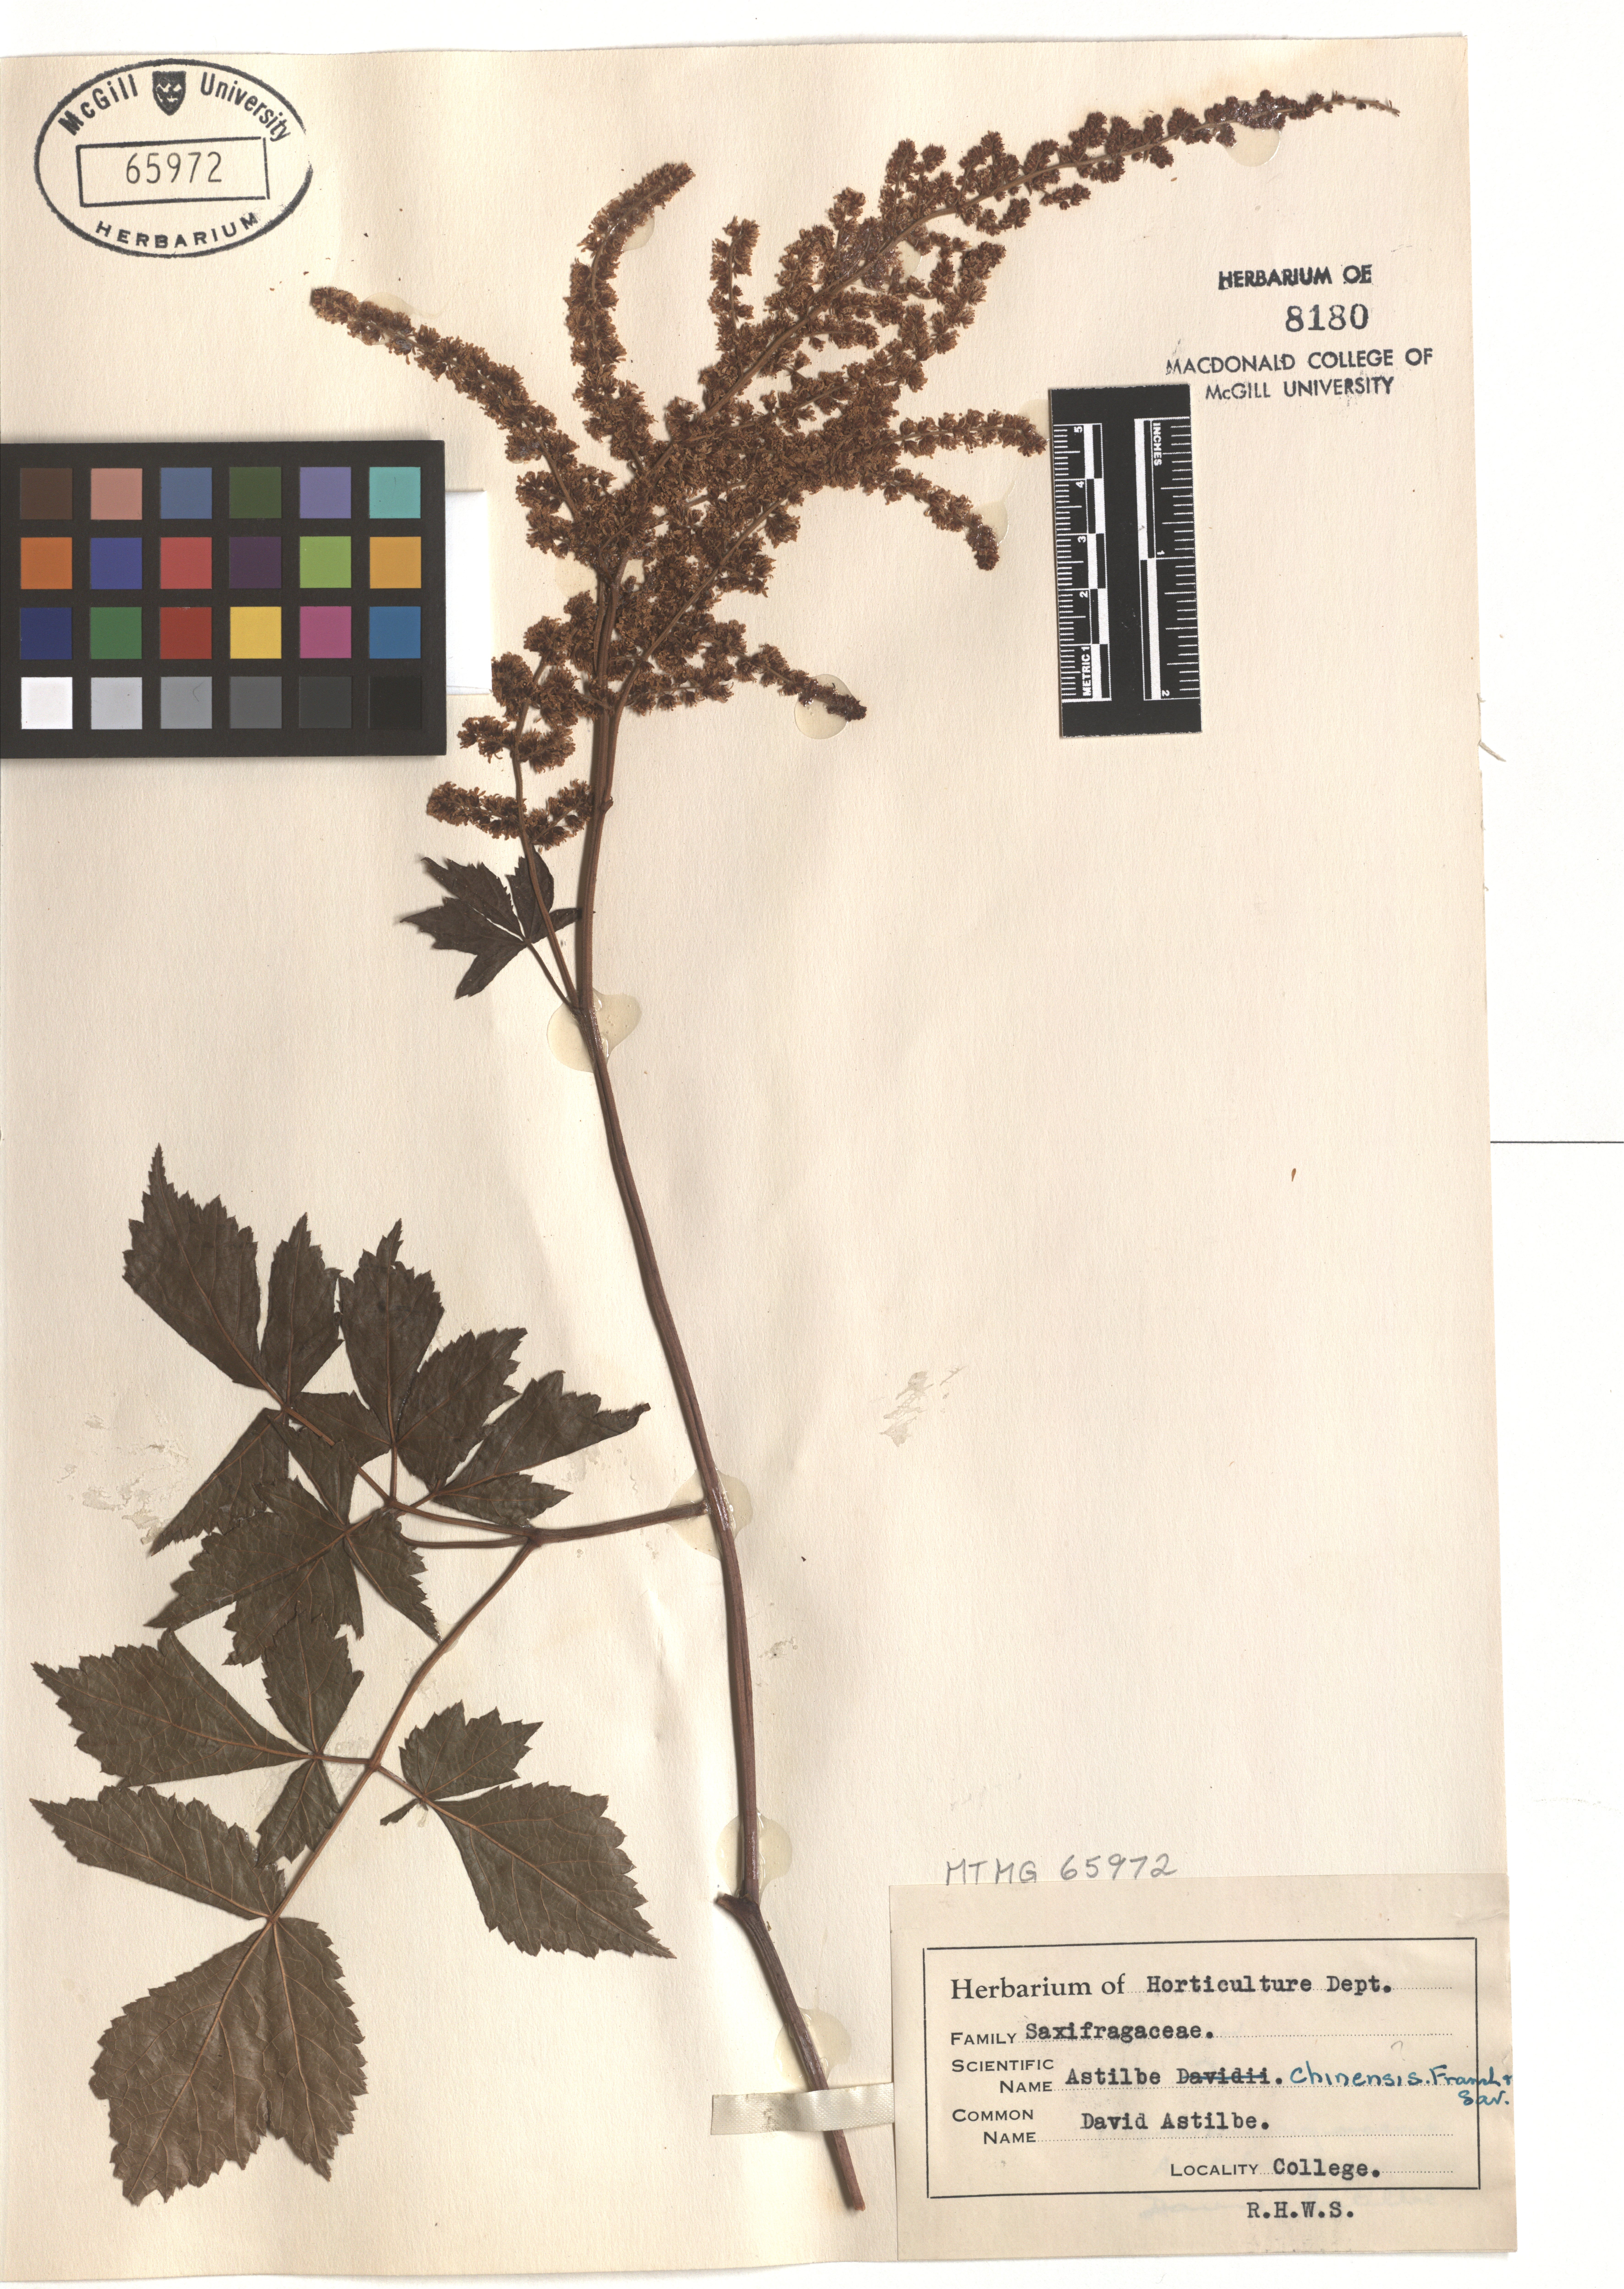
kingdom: Plantae
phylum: Tracheophyta
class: Magnoliopsida
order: Lamiales
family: Verbenaceae
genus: Verbena
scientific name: Verbena hastata
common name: American blue vervain
